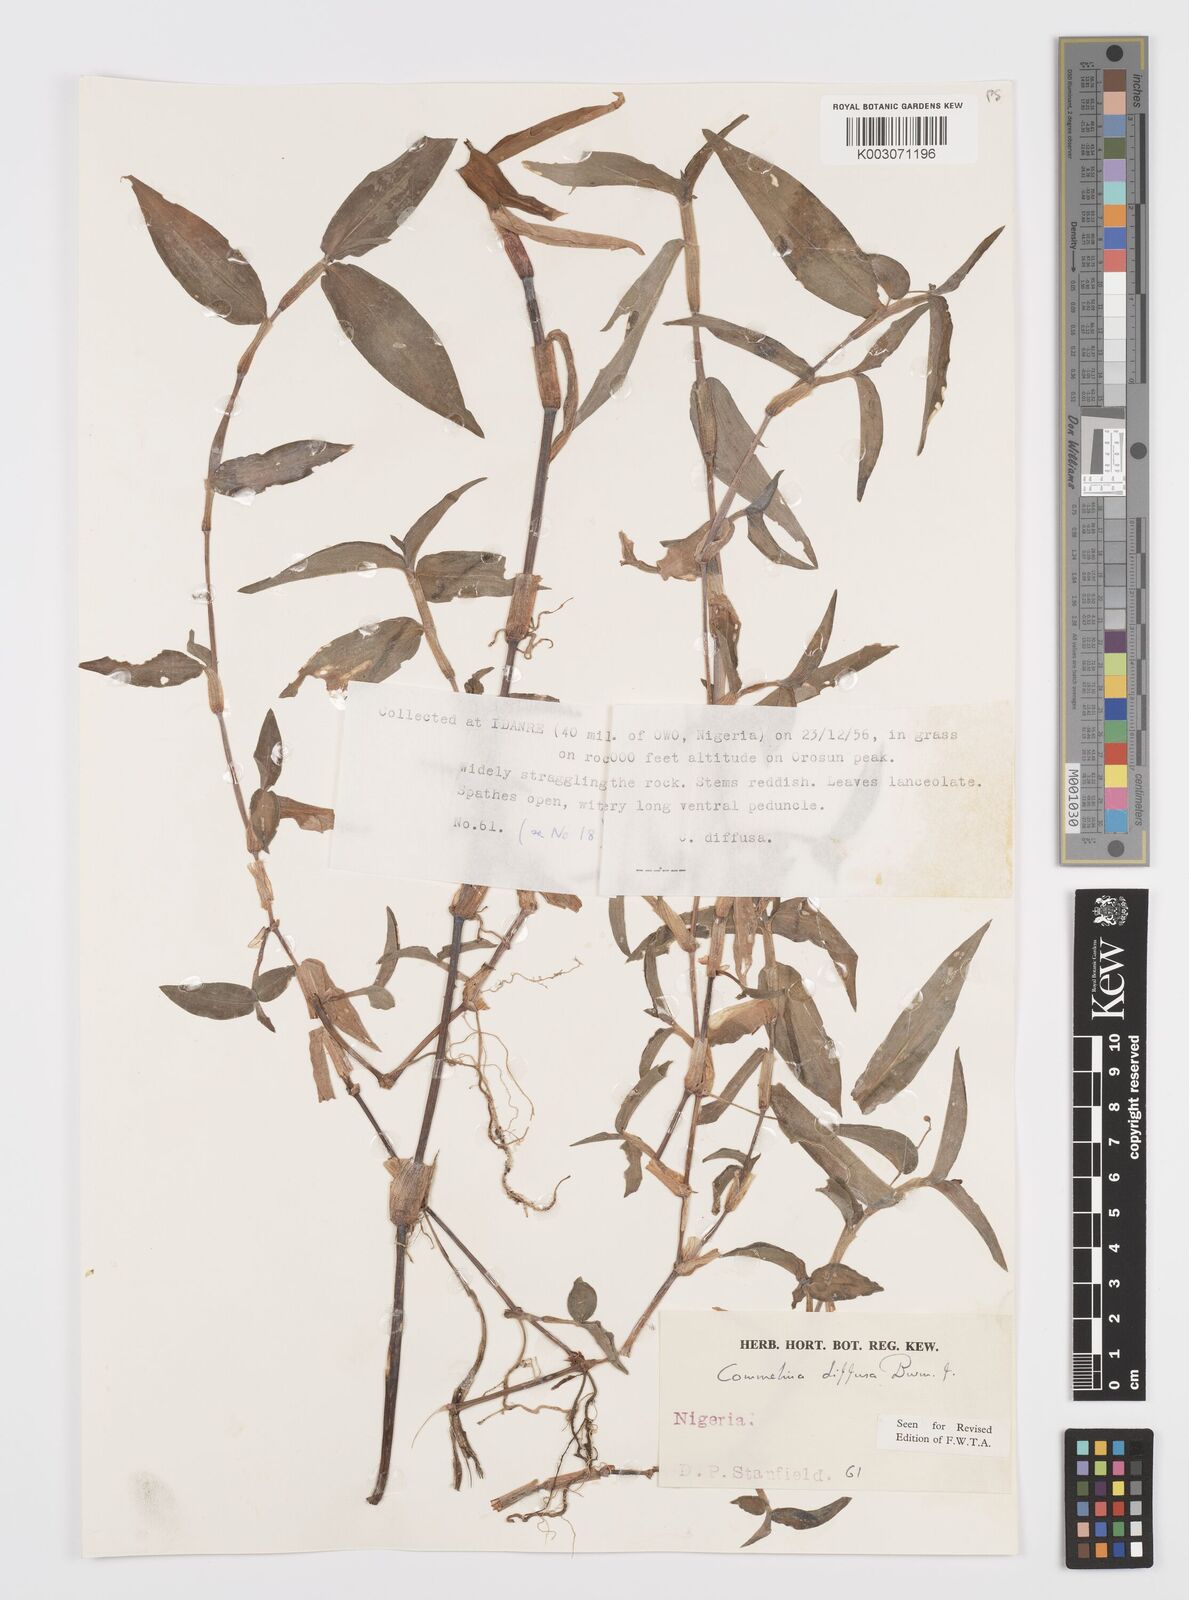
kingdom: Plantae
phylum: Tracheophyta
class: Liliopsida
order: Commelinales
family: Commelinaceae
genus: Commelina
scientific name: Commelina diffusa
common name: Climbing dayflower
